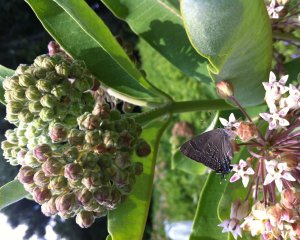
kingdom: Animalia
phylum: Arthropoda
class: Insecta
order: Lepidoptera
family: Lycaenidae
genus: Strymon
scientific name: Strymon caryaevorus
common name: Hickory Hairstreak
